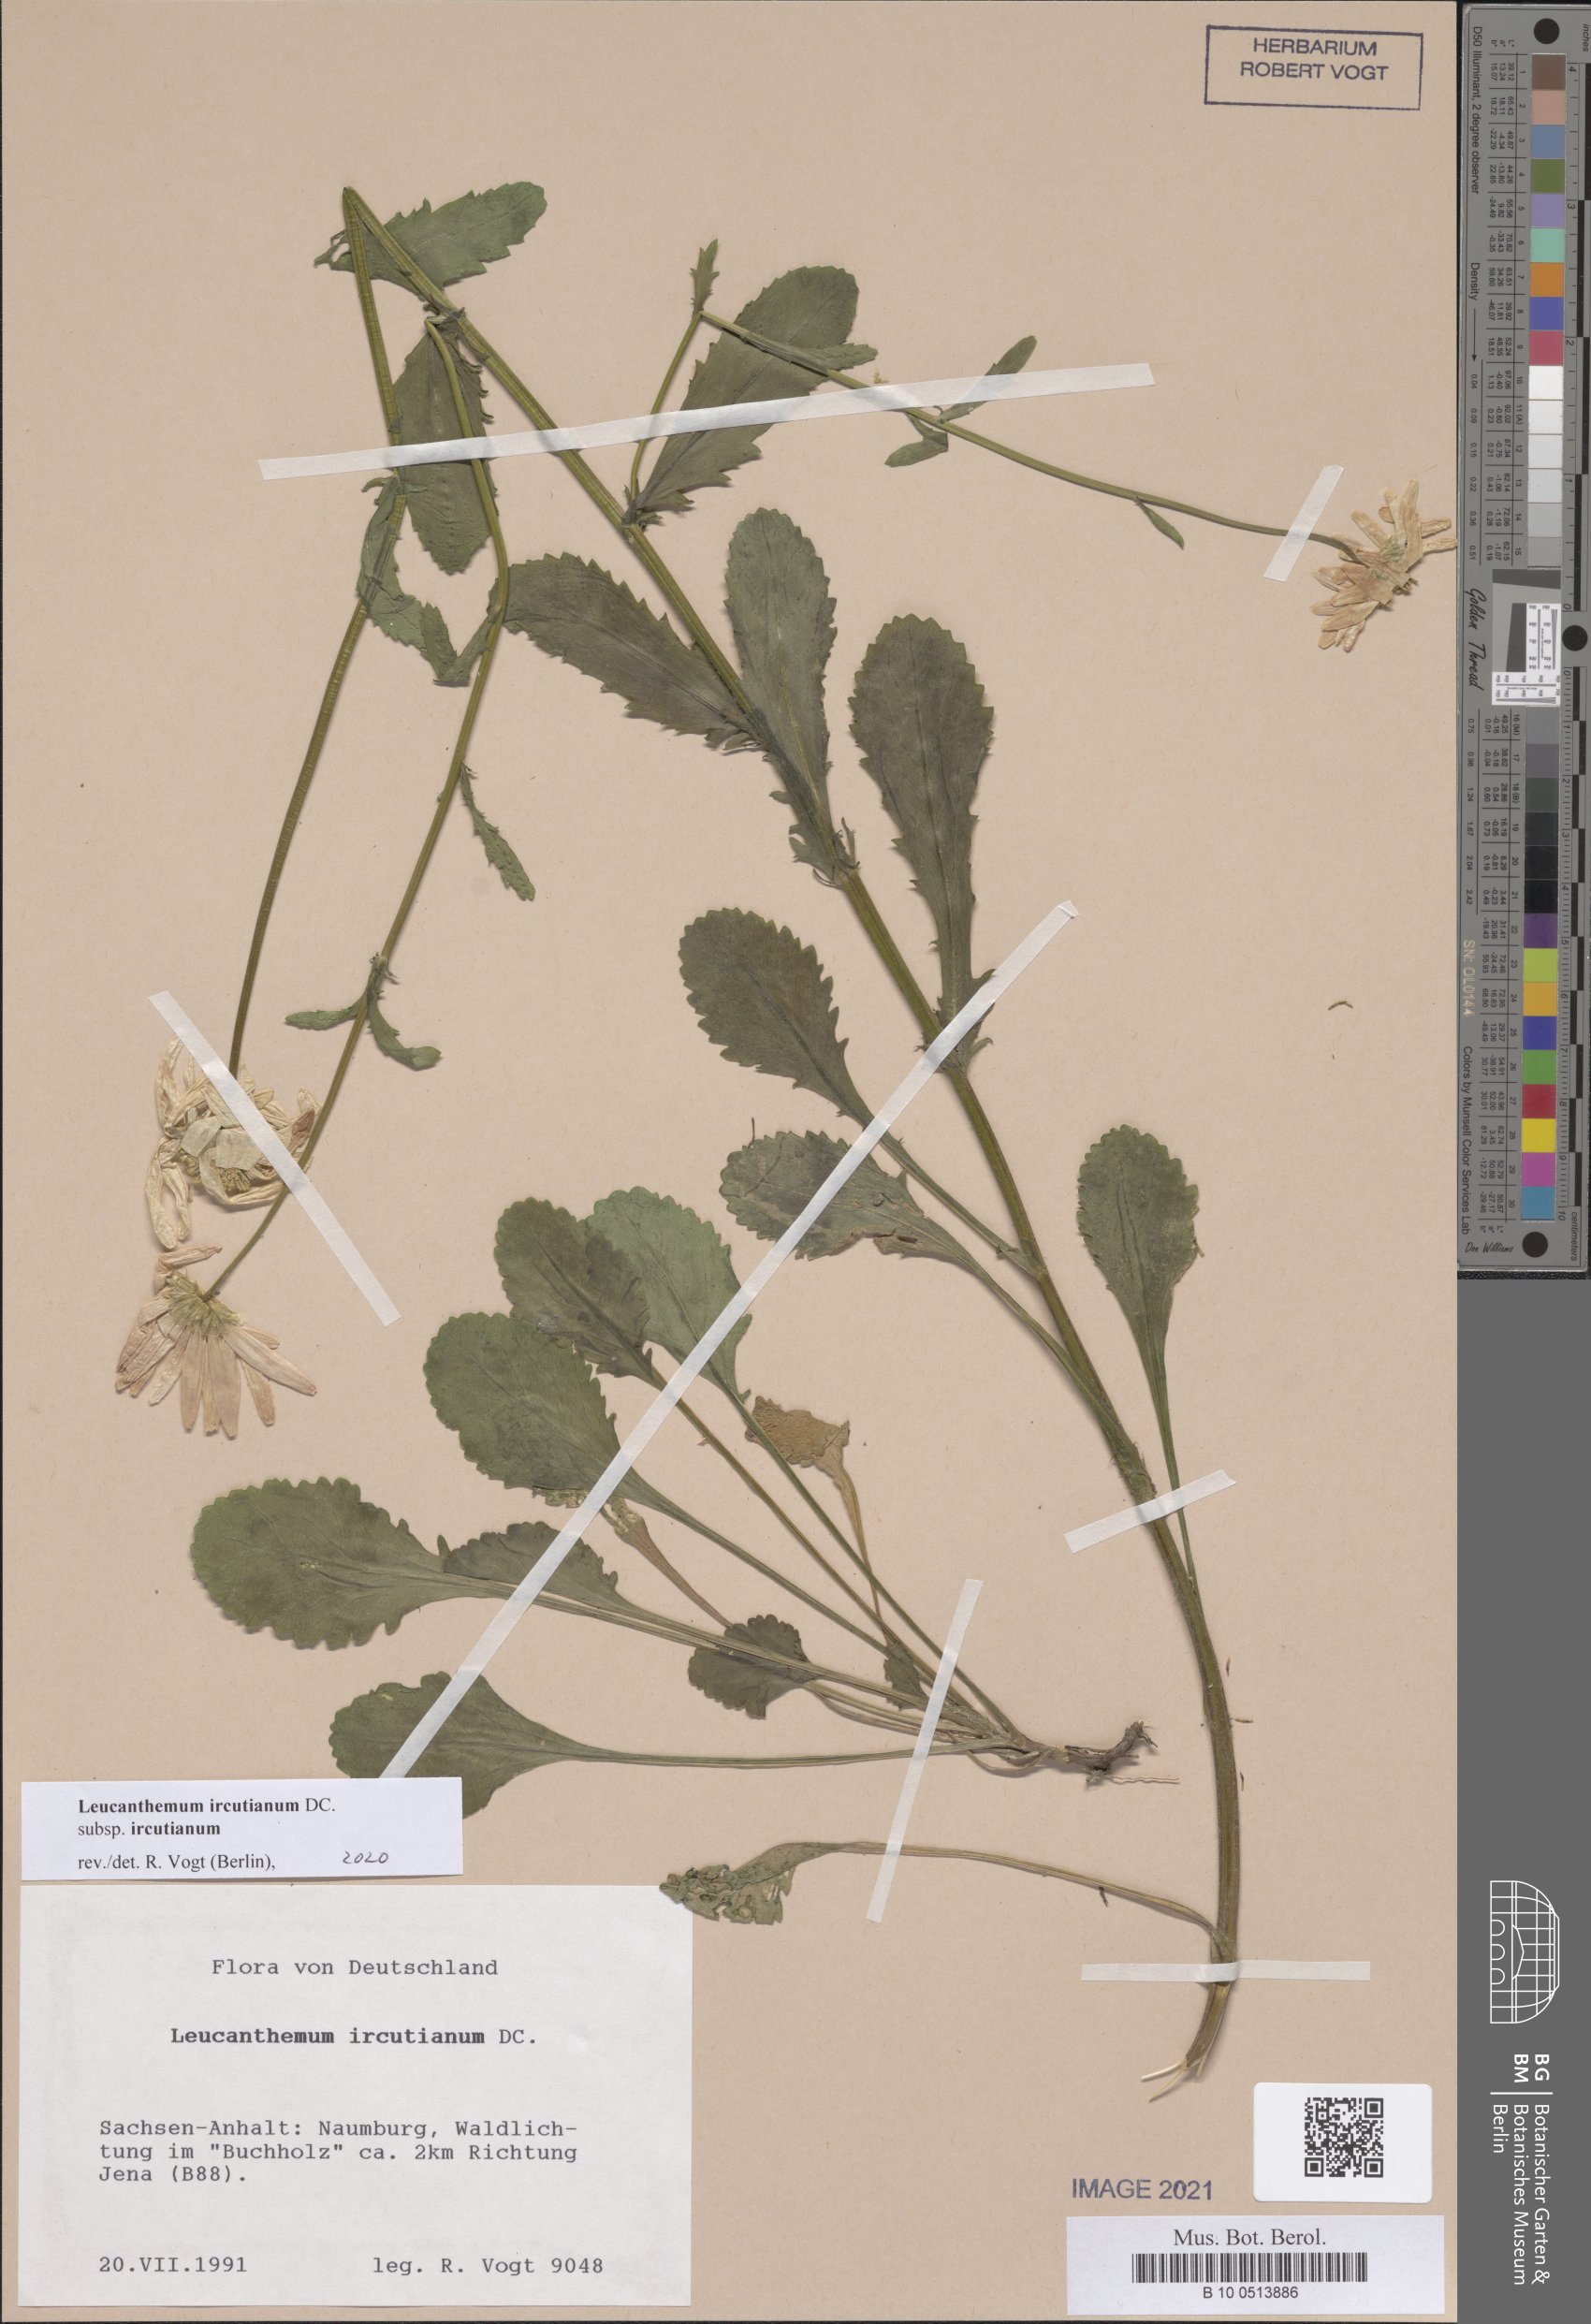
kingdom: Plantae
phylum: Tracheophyta
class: Magnoliopsida
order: Asterales
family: Asteraceae
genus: Leucanthemum
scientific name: Leucanthemum ircutianum
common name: Daisy
